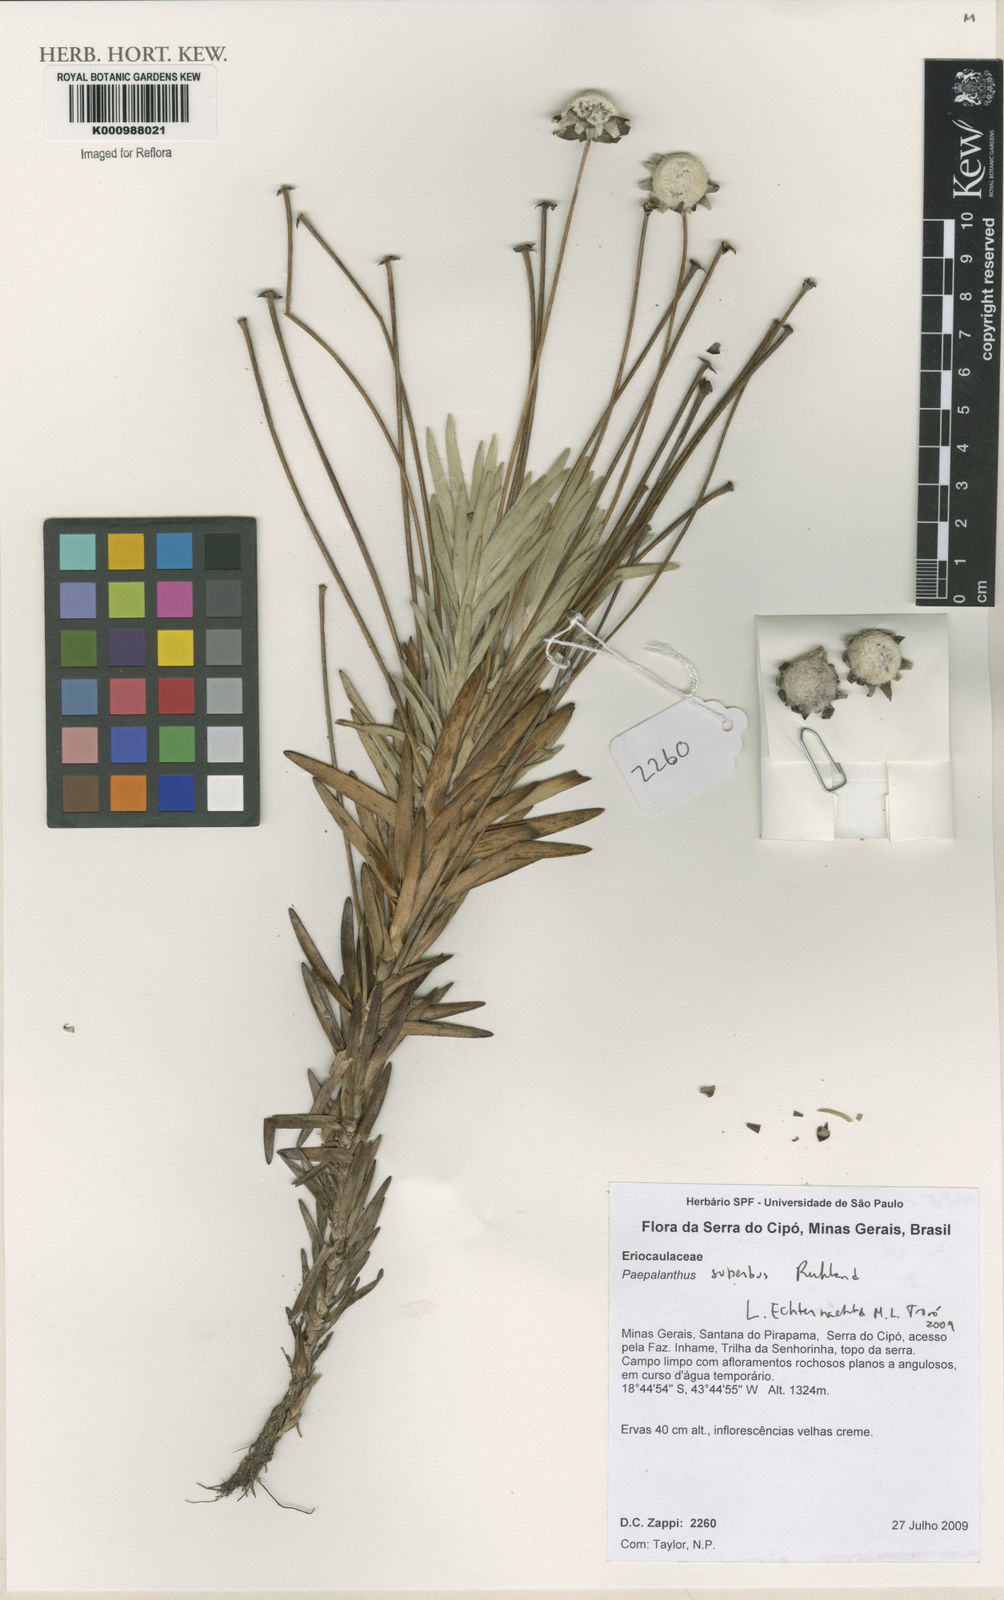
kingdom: Plantae
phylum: Tracheophyta
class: Liliopsida
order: Poales
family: Eriocaulaceae
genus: Paepalanthus
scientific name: Paepalanthus superbus
